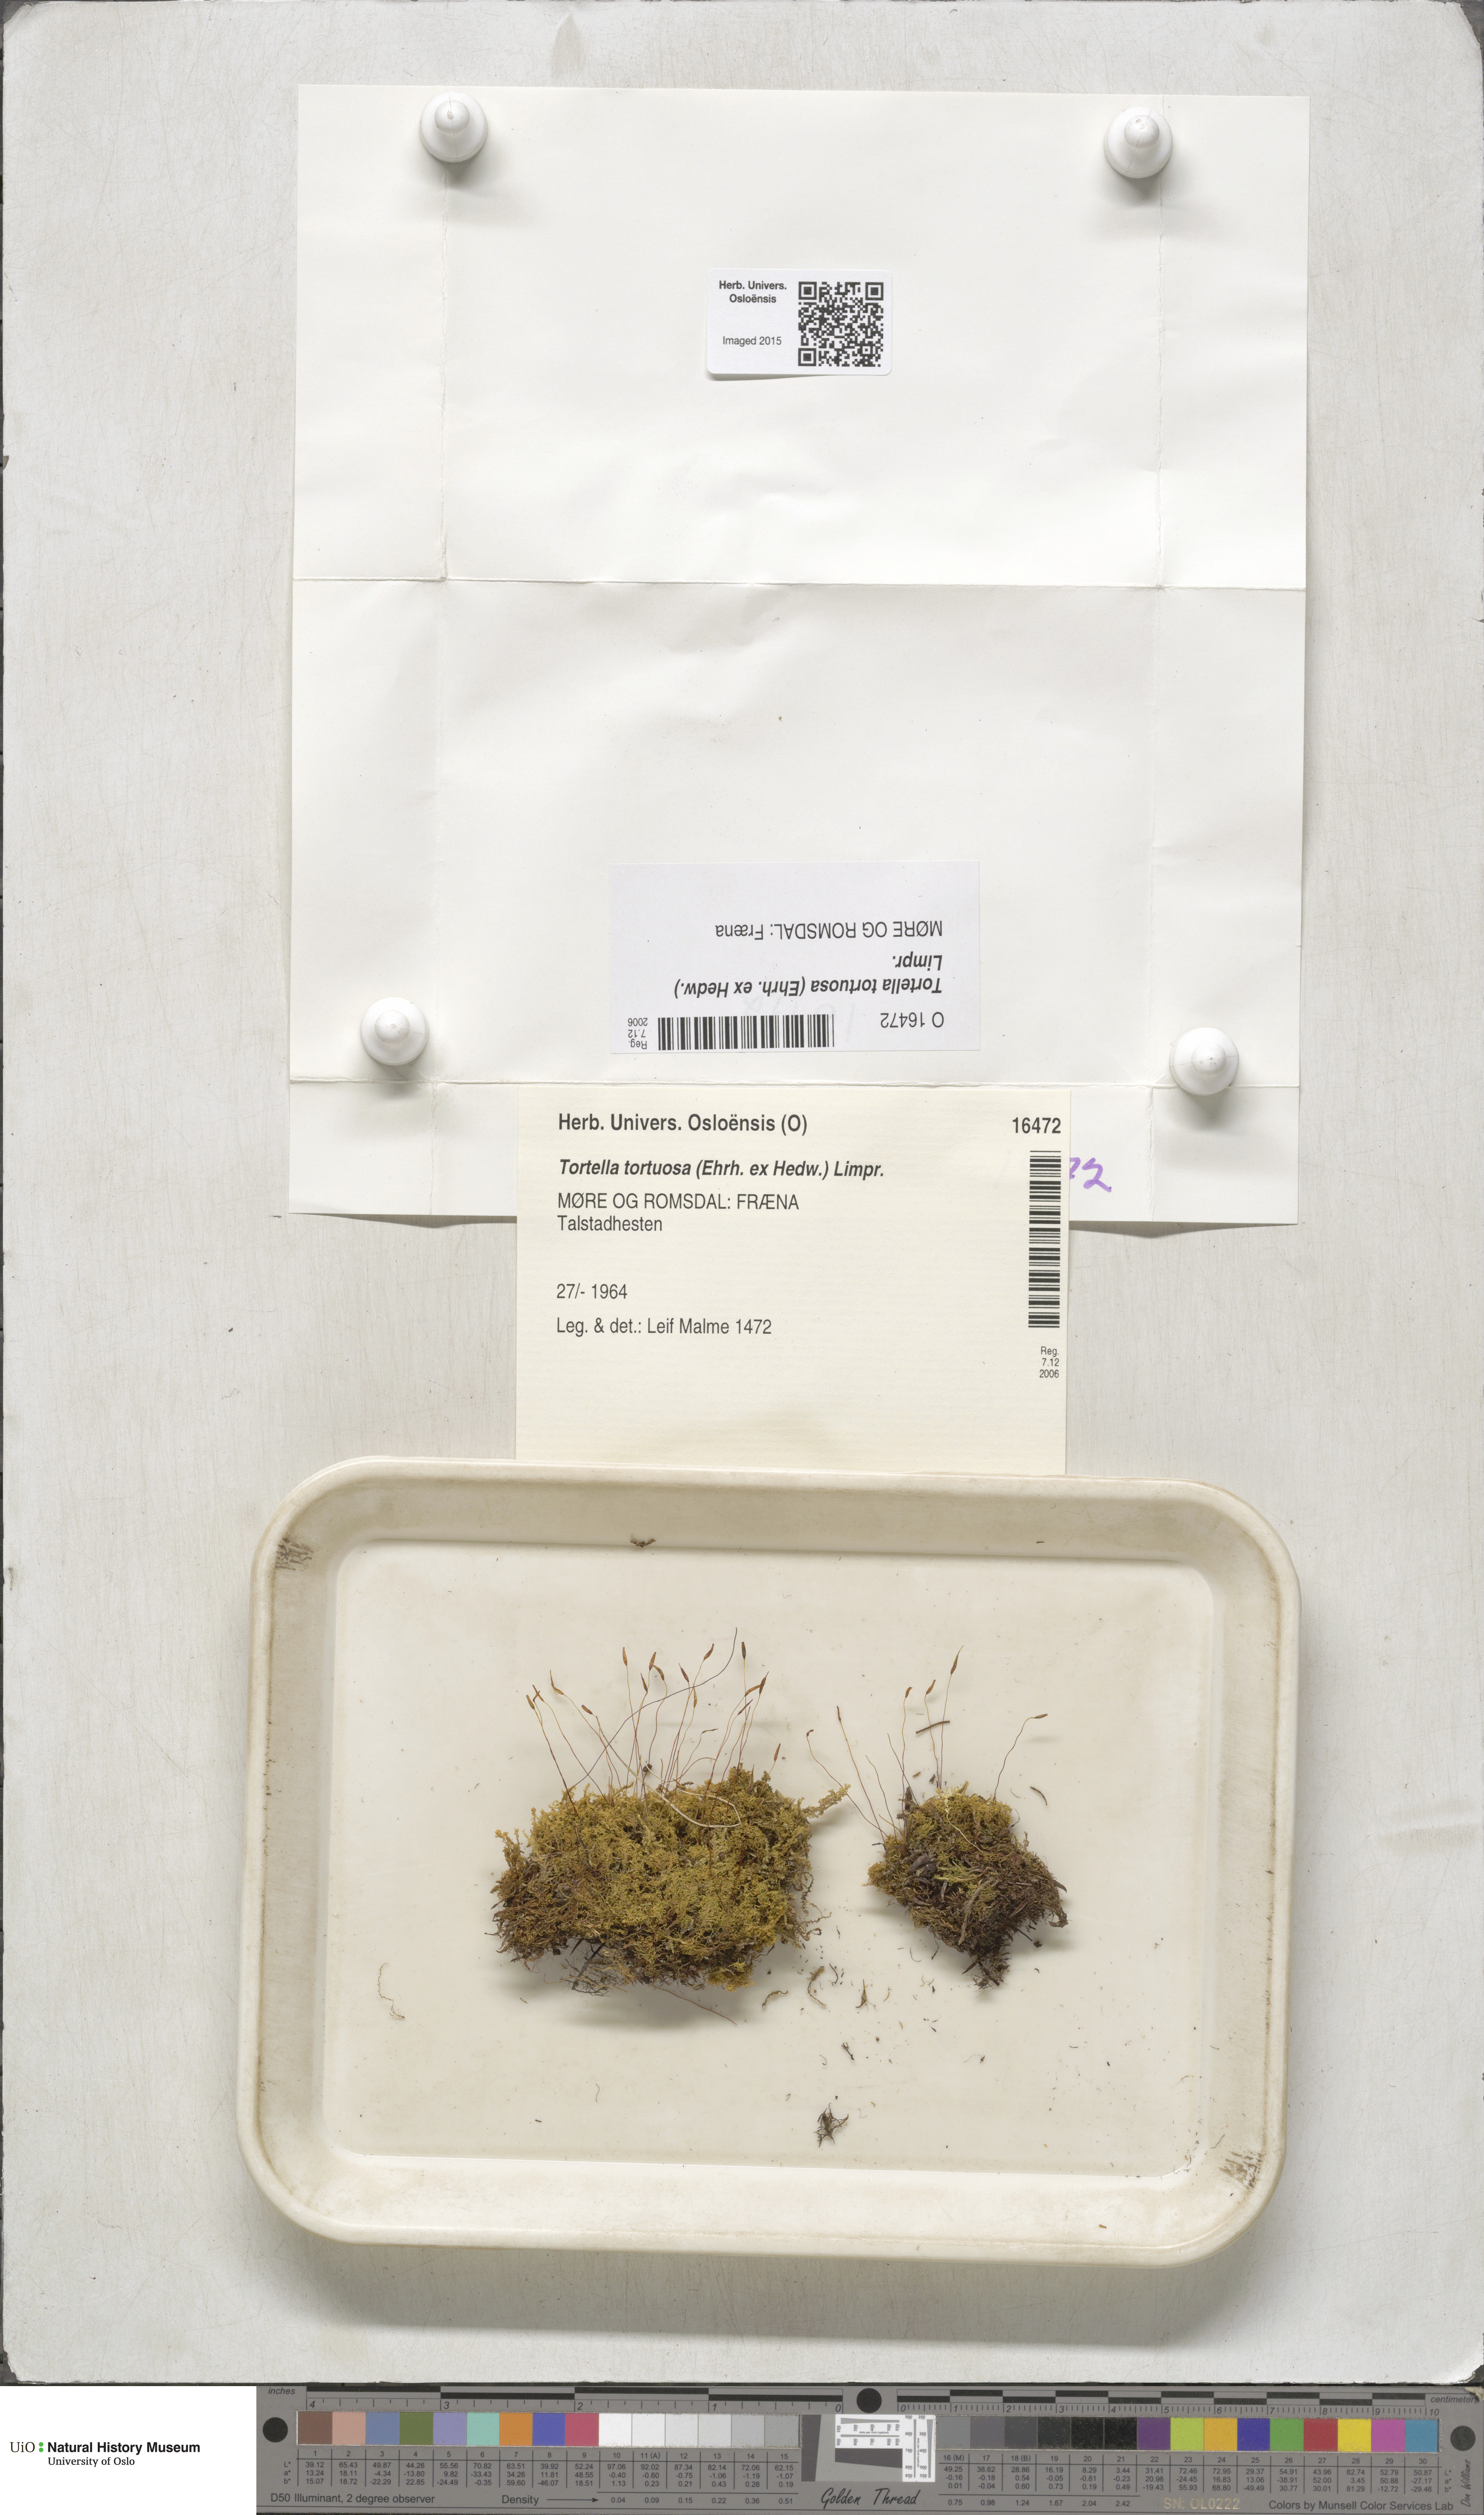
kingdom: Plantae
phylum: Bryophyta
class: Bryopsida
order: Pottiales
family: Pottiaceae
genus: Tortella
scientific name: Tortella tortuosa
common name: Frizzled crisp moss
